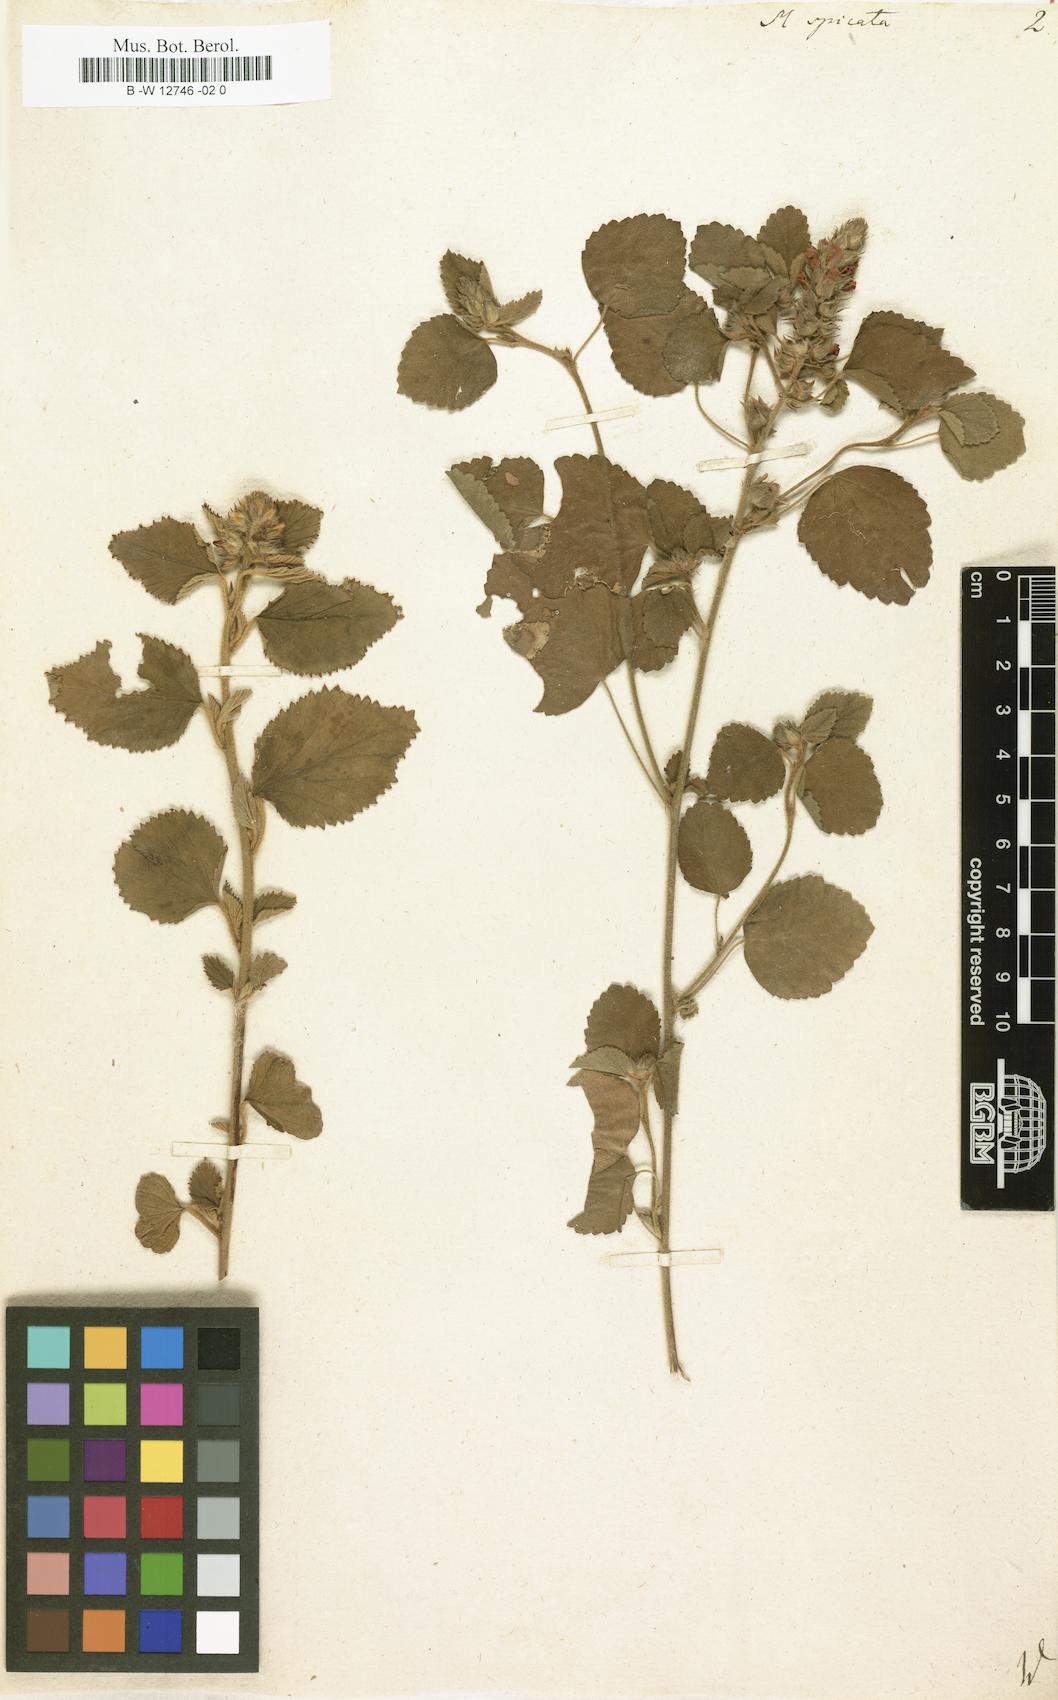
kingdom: Plantae
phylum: Tracheophyta
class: Magnoliopsida
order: Malvales
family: Malvaceae
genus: Melochia
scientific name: Melochia spicata
